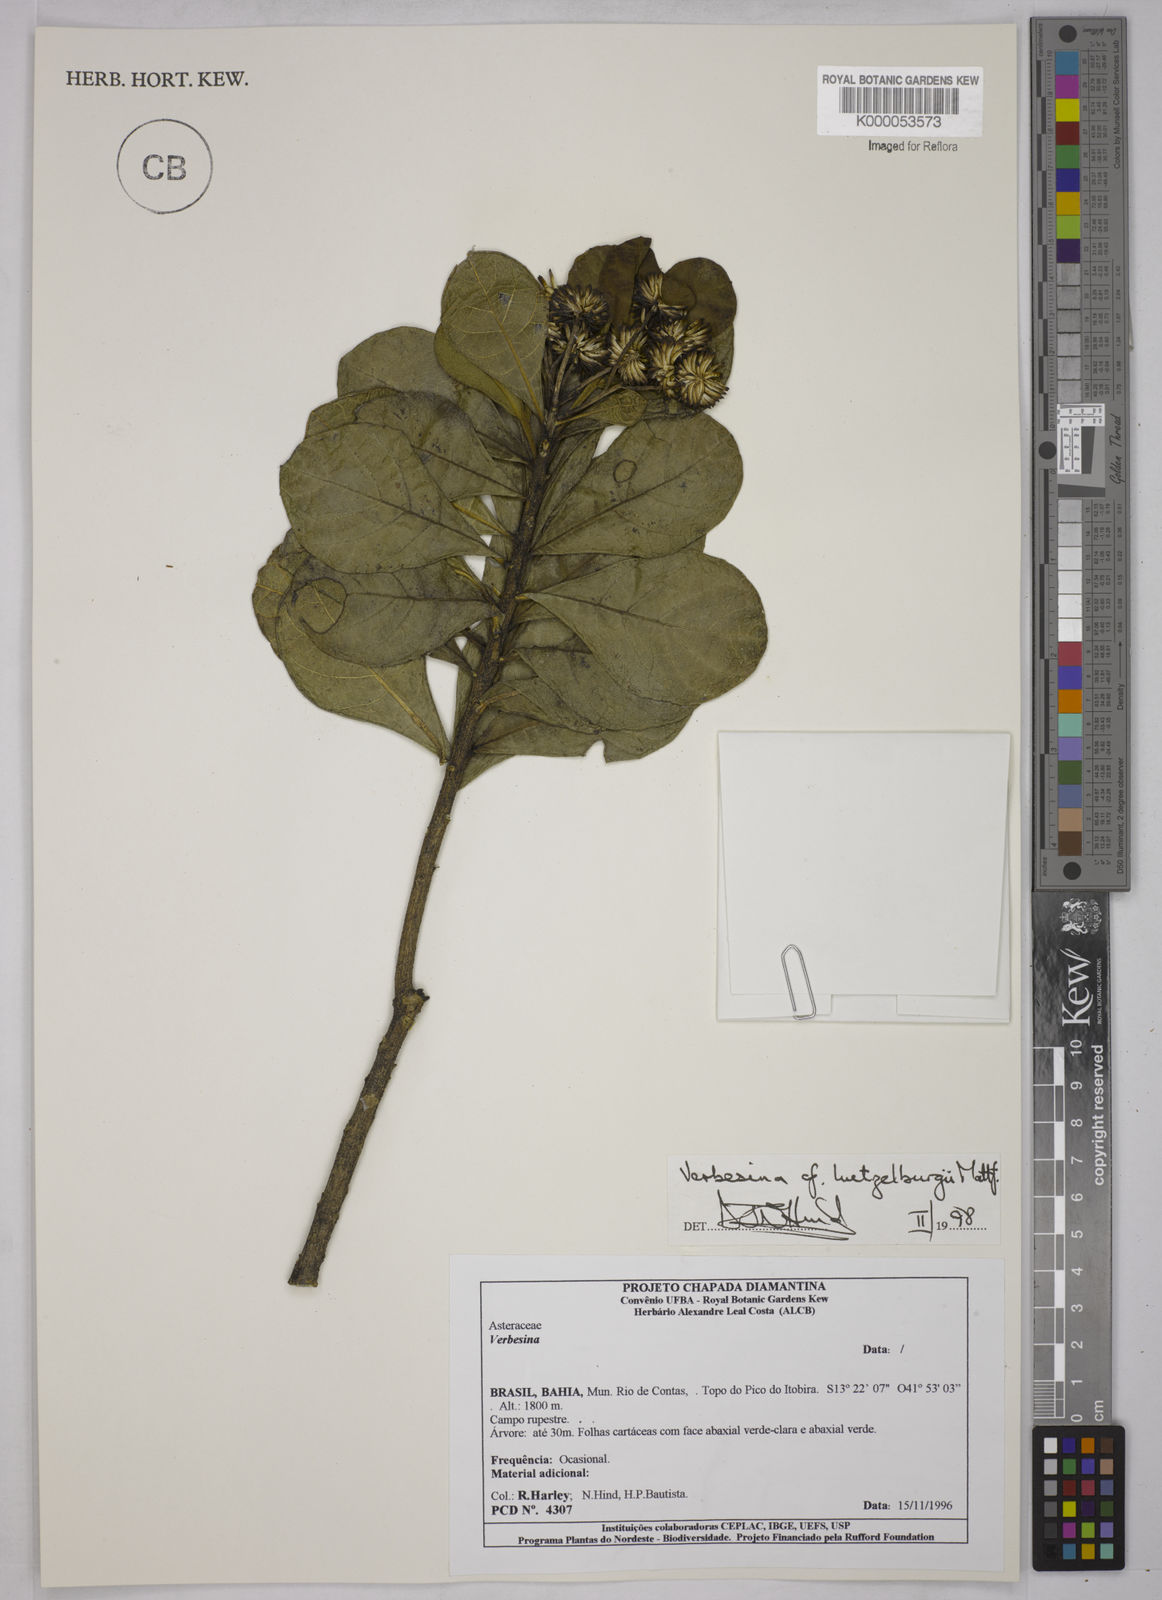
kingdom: Plantae
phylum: Tracheophyta
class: Magnoliopsida
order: Asterales
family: Asteraceae
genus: Verbesina
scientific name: Verbesina luetzelburgii
